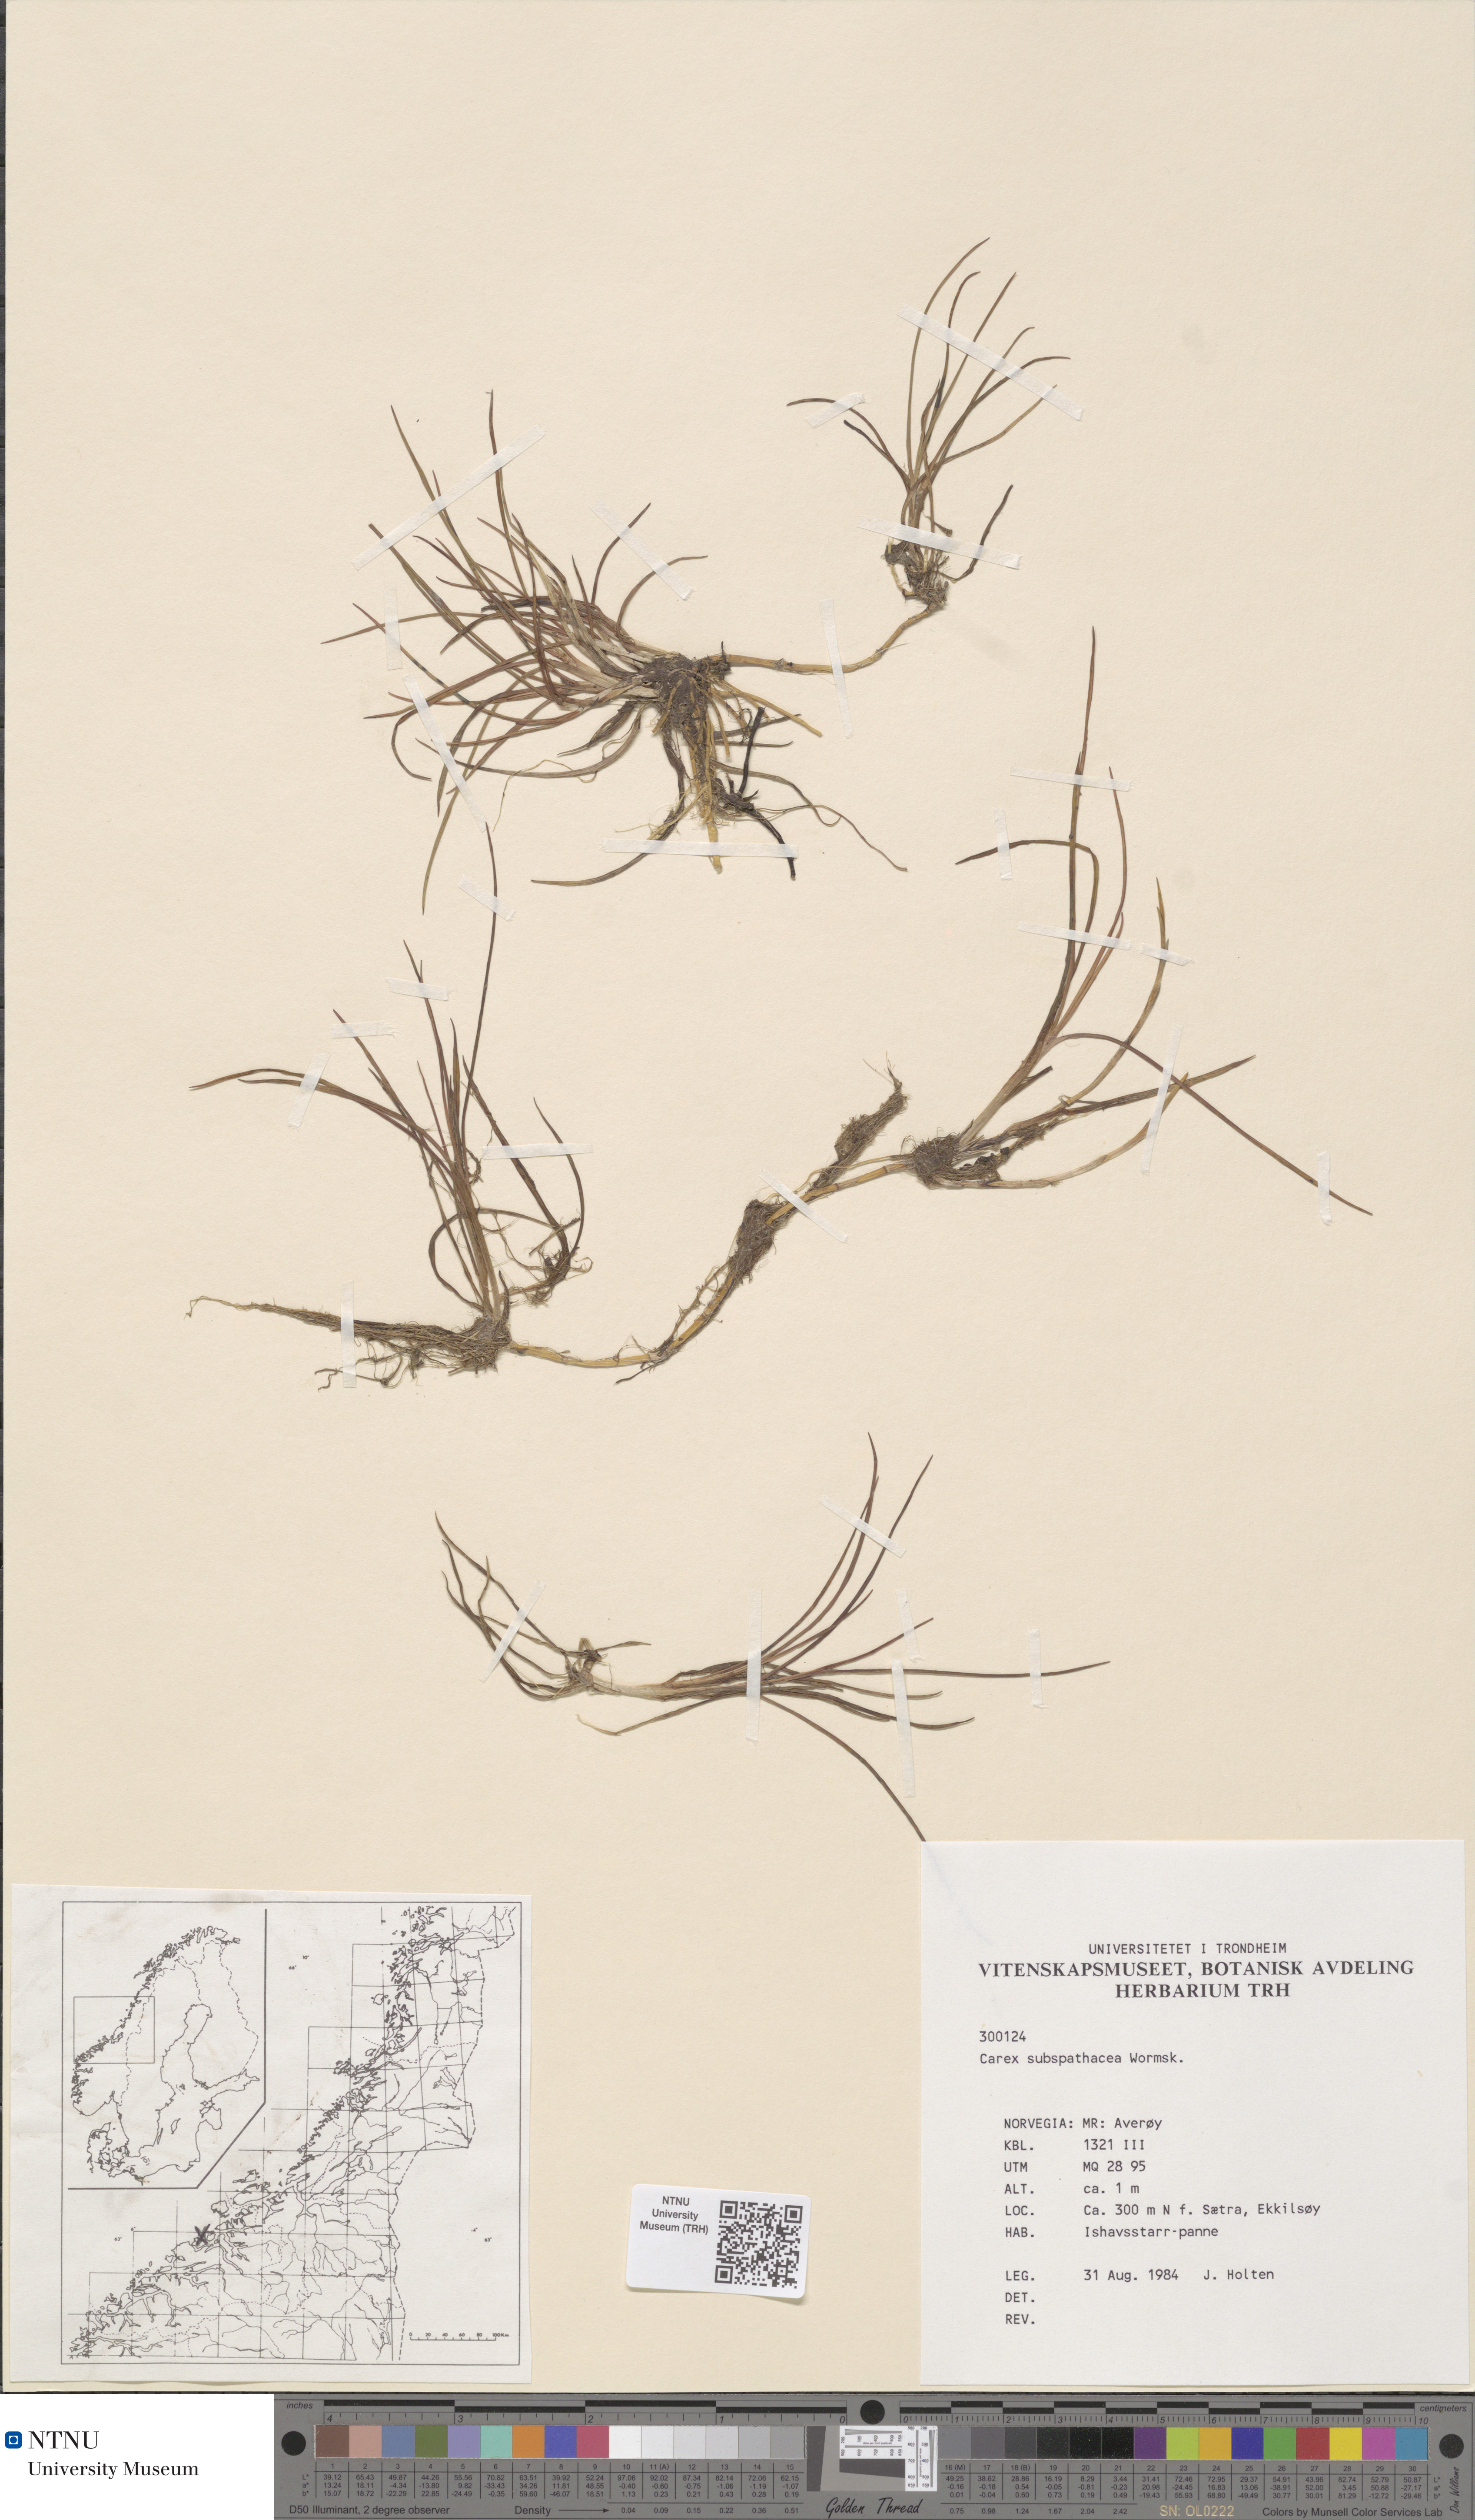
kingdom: Plantae
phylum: Tracheophyta
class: Liliopsida
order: Poales
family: Cyperaceae
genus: Carex
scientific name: Carex subspathacea
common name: Hoppner's sedge
